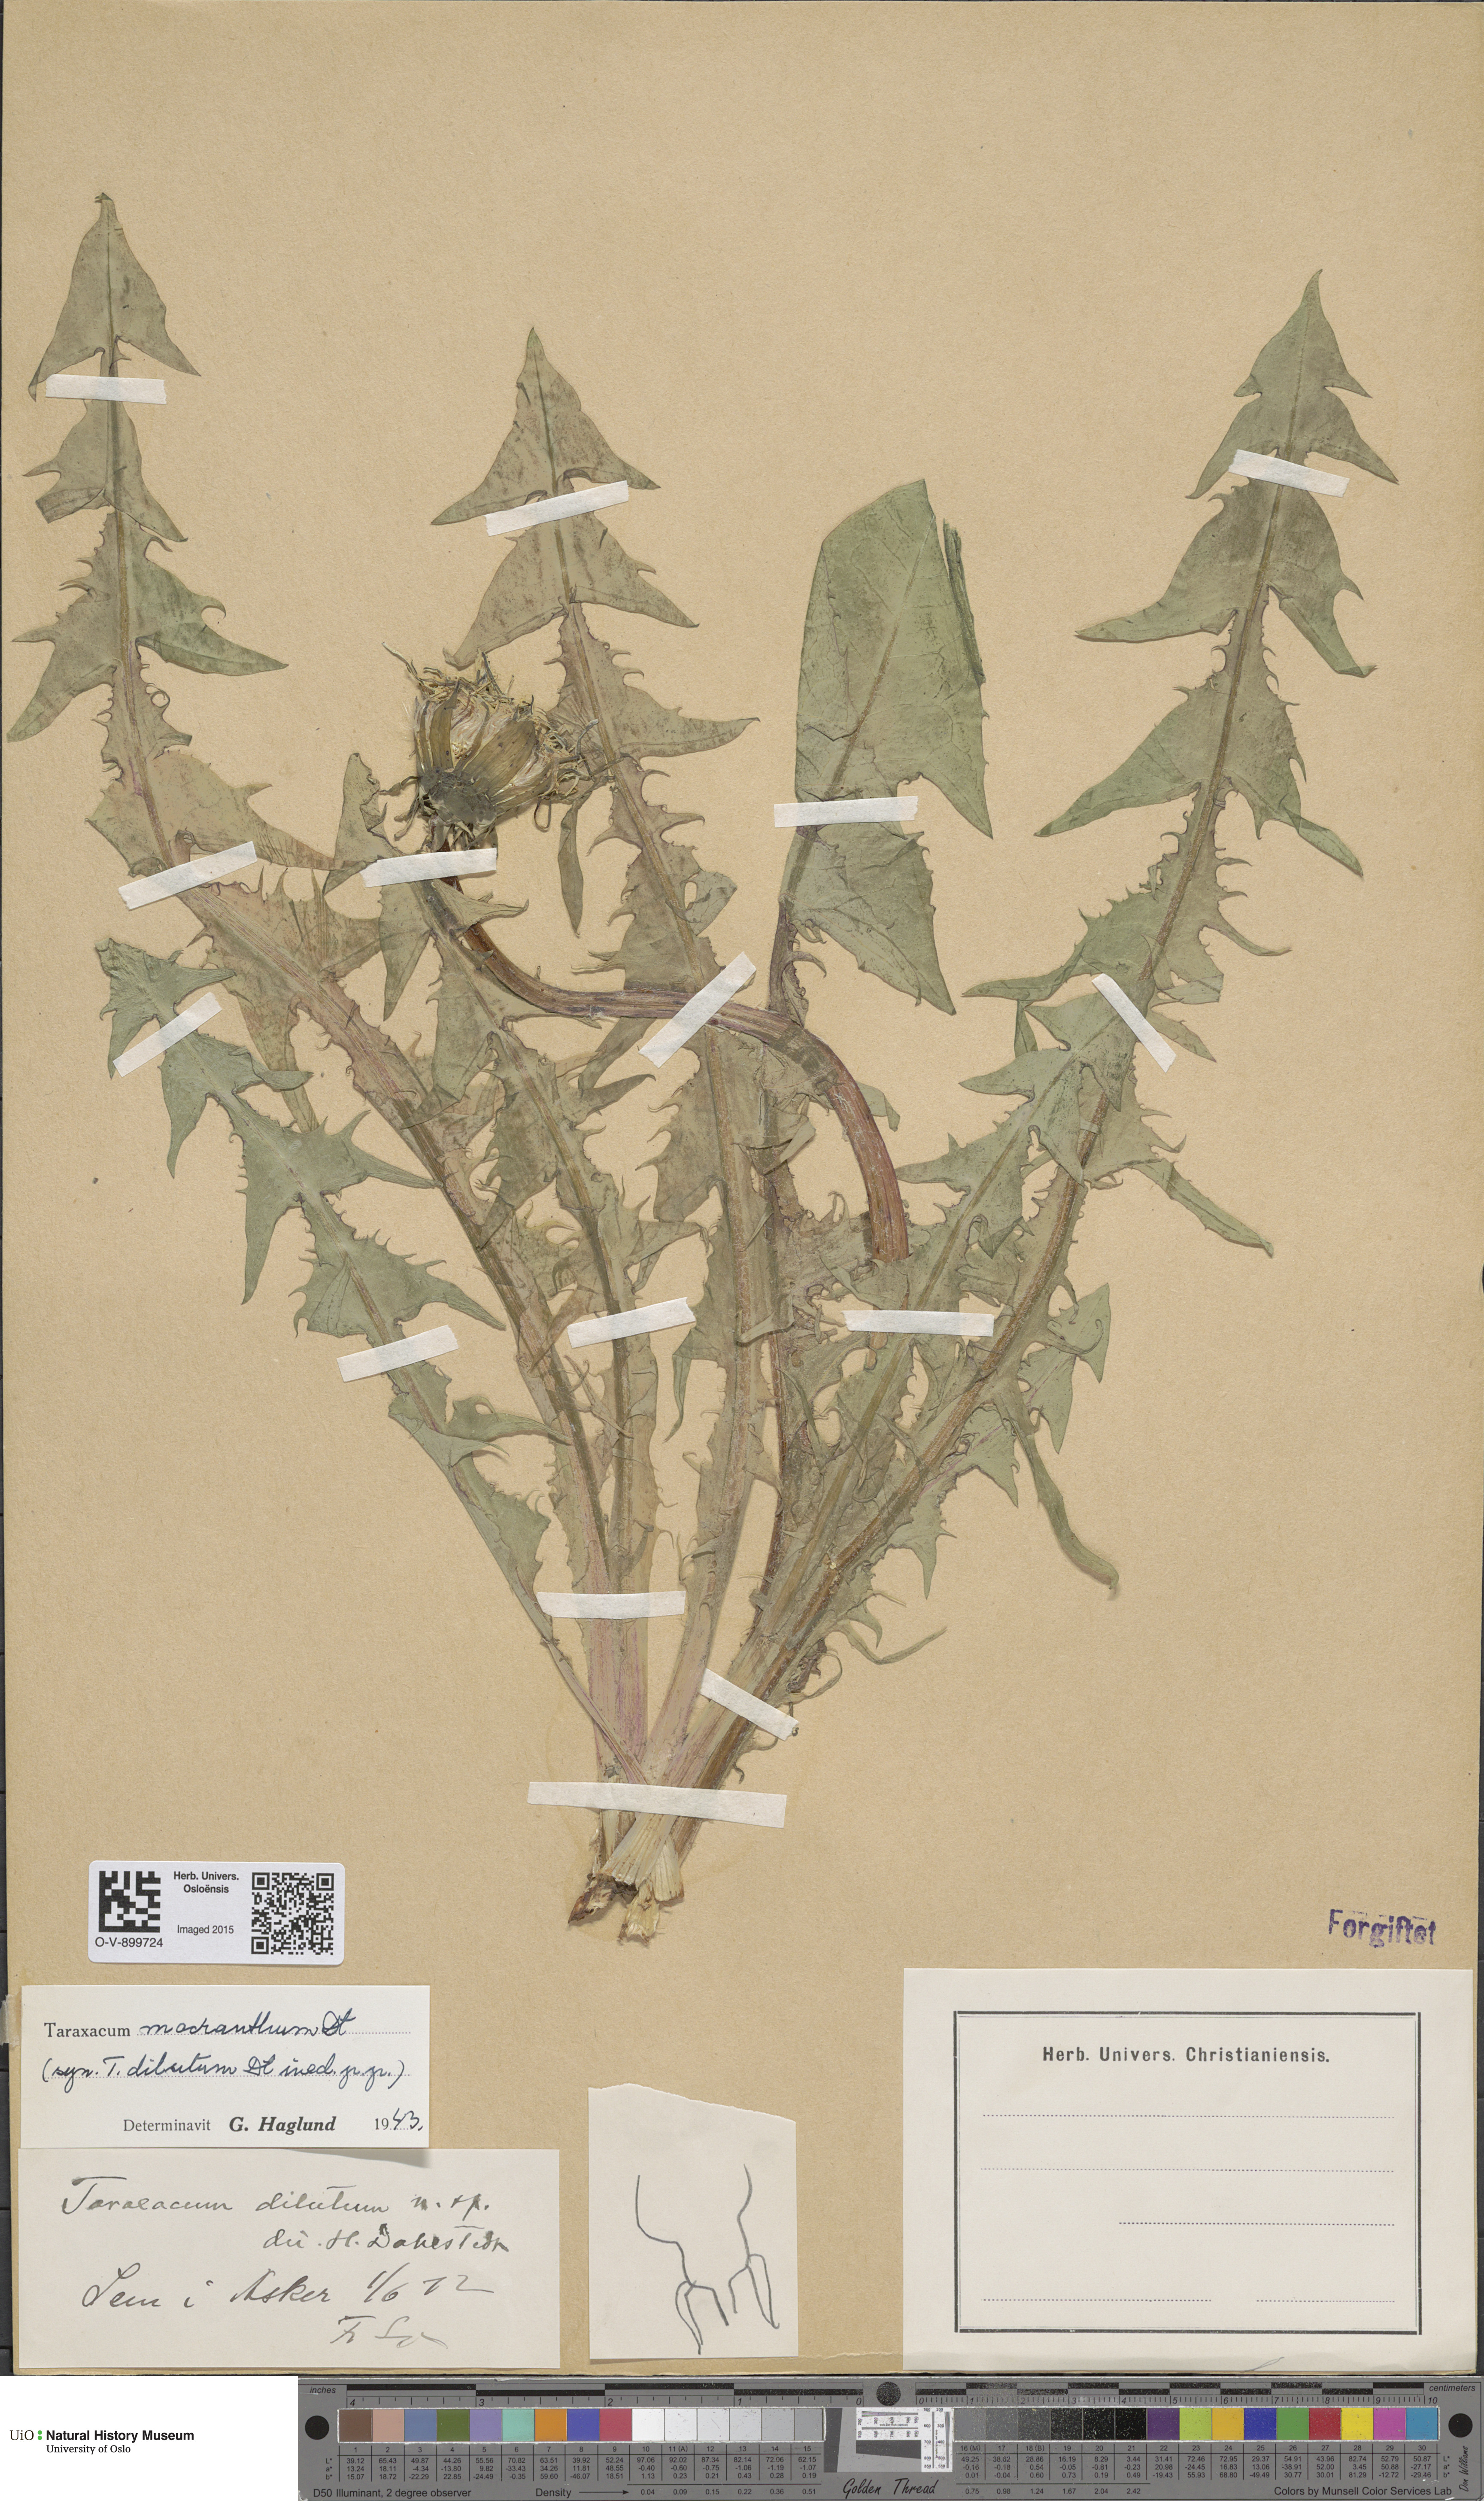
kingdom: Plantae
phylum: Tracheophyta
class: Magnoliopsida
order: Asterales
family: Asteraceae
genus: Taraxacum
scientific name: Taraxacum praeradians
